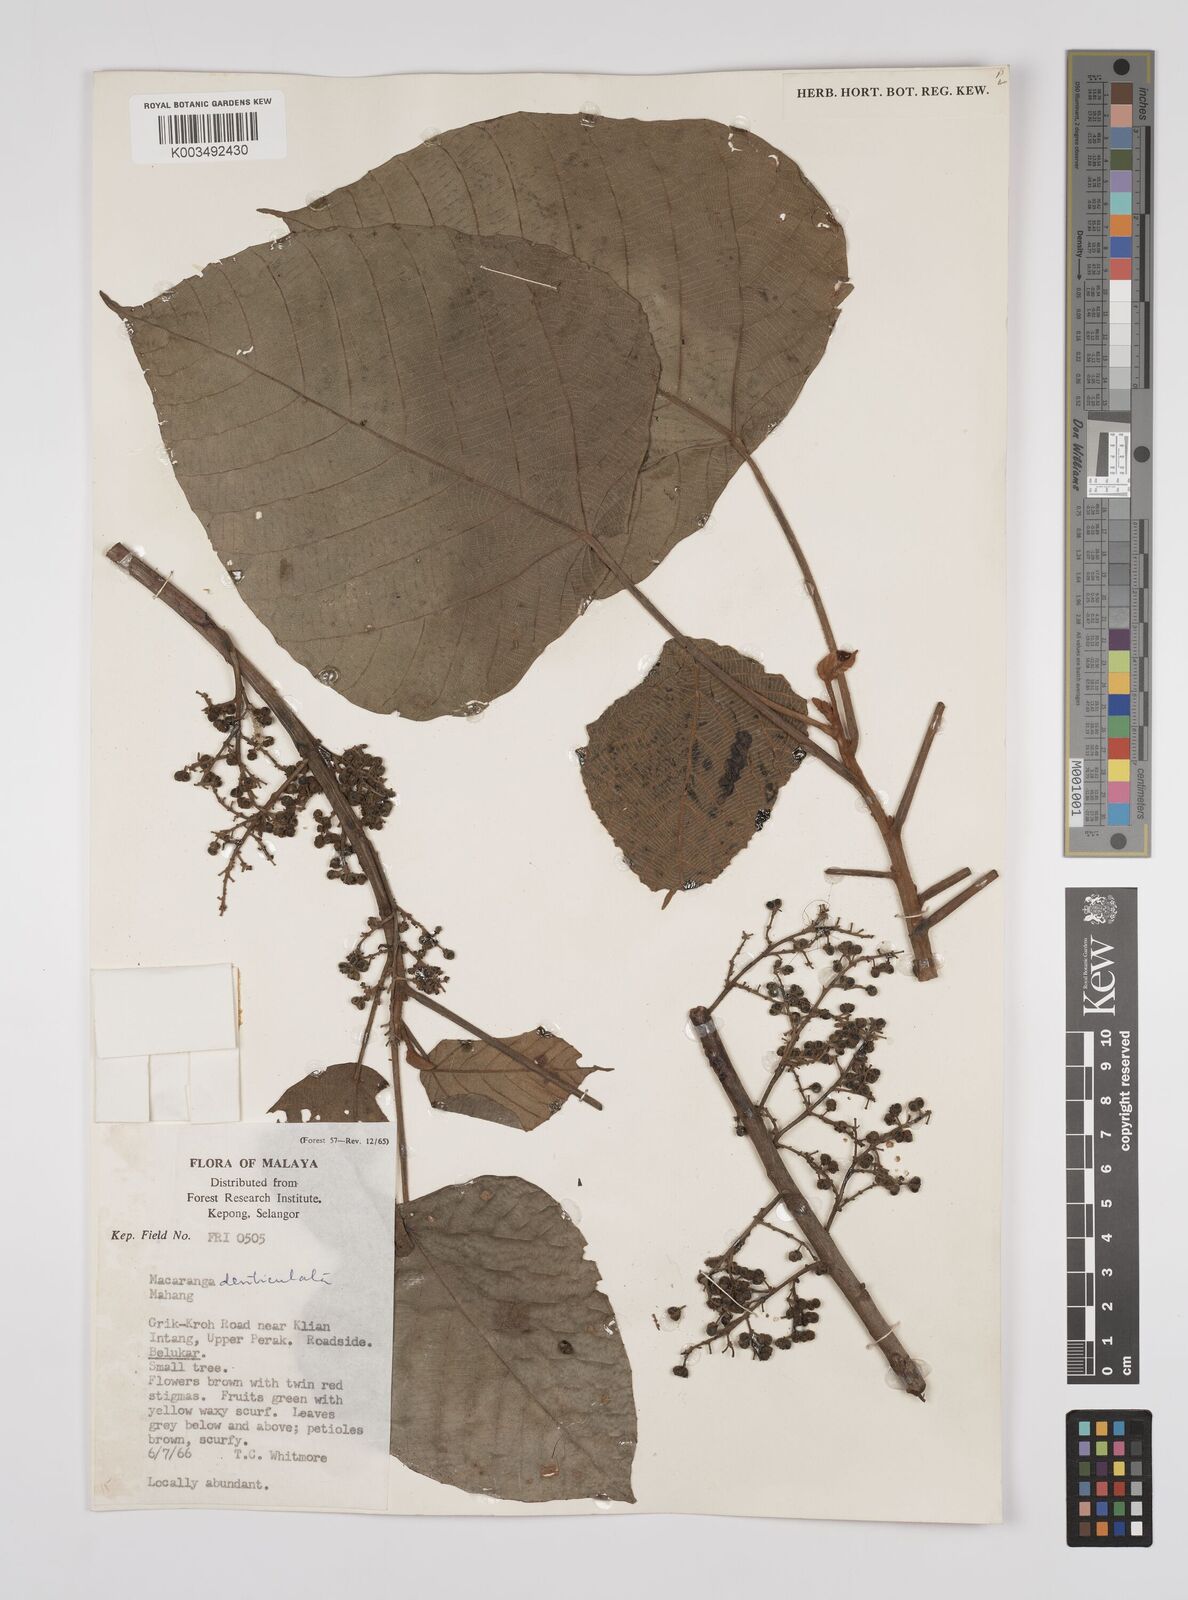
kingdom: Plantae
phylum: Tracheophyta
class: Magnoliopsida
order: Malpighiales
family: Euphorbiaceae
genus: Macaranga
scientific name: Macaranga denticulata
